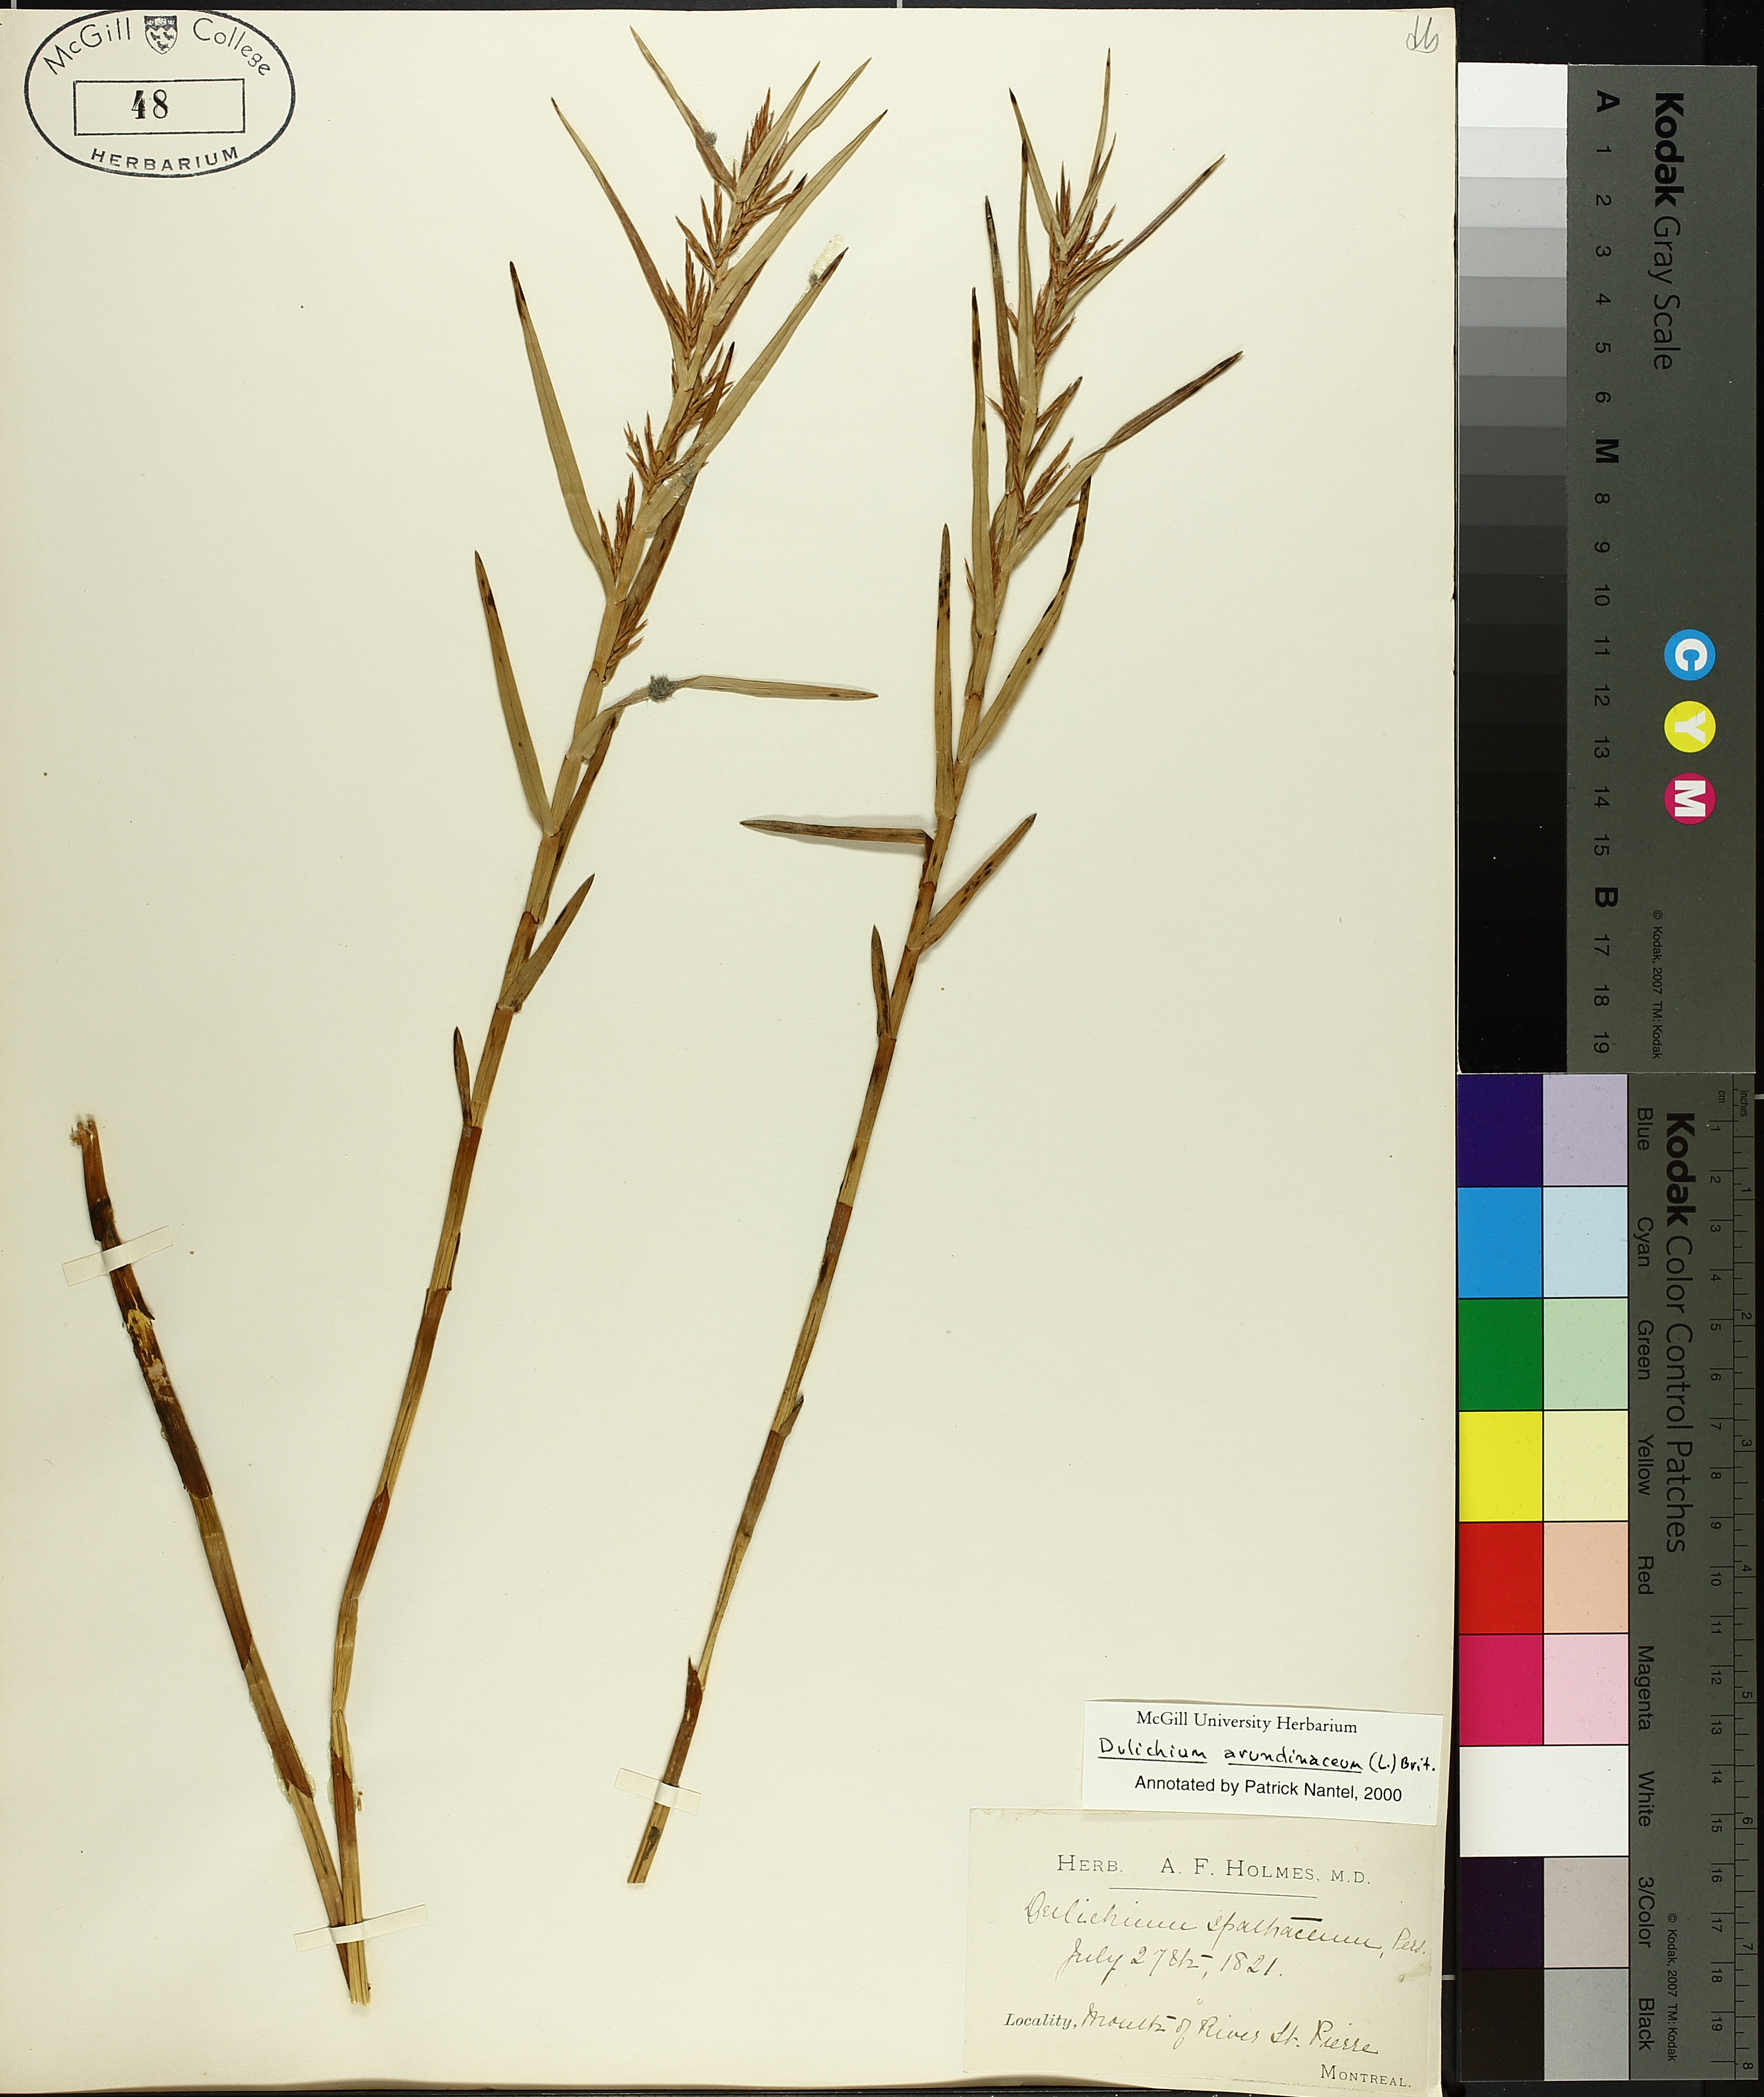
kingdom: Plantae
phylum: Tracheophyta
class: Liliopsida
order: Poales
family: Cyperaceae
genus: Dulichium
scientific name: Dulichium arundinaceum
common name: Three-way sedge
